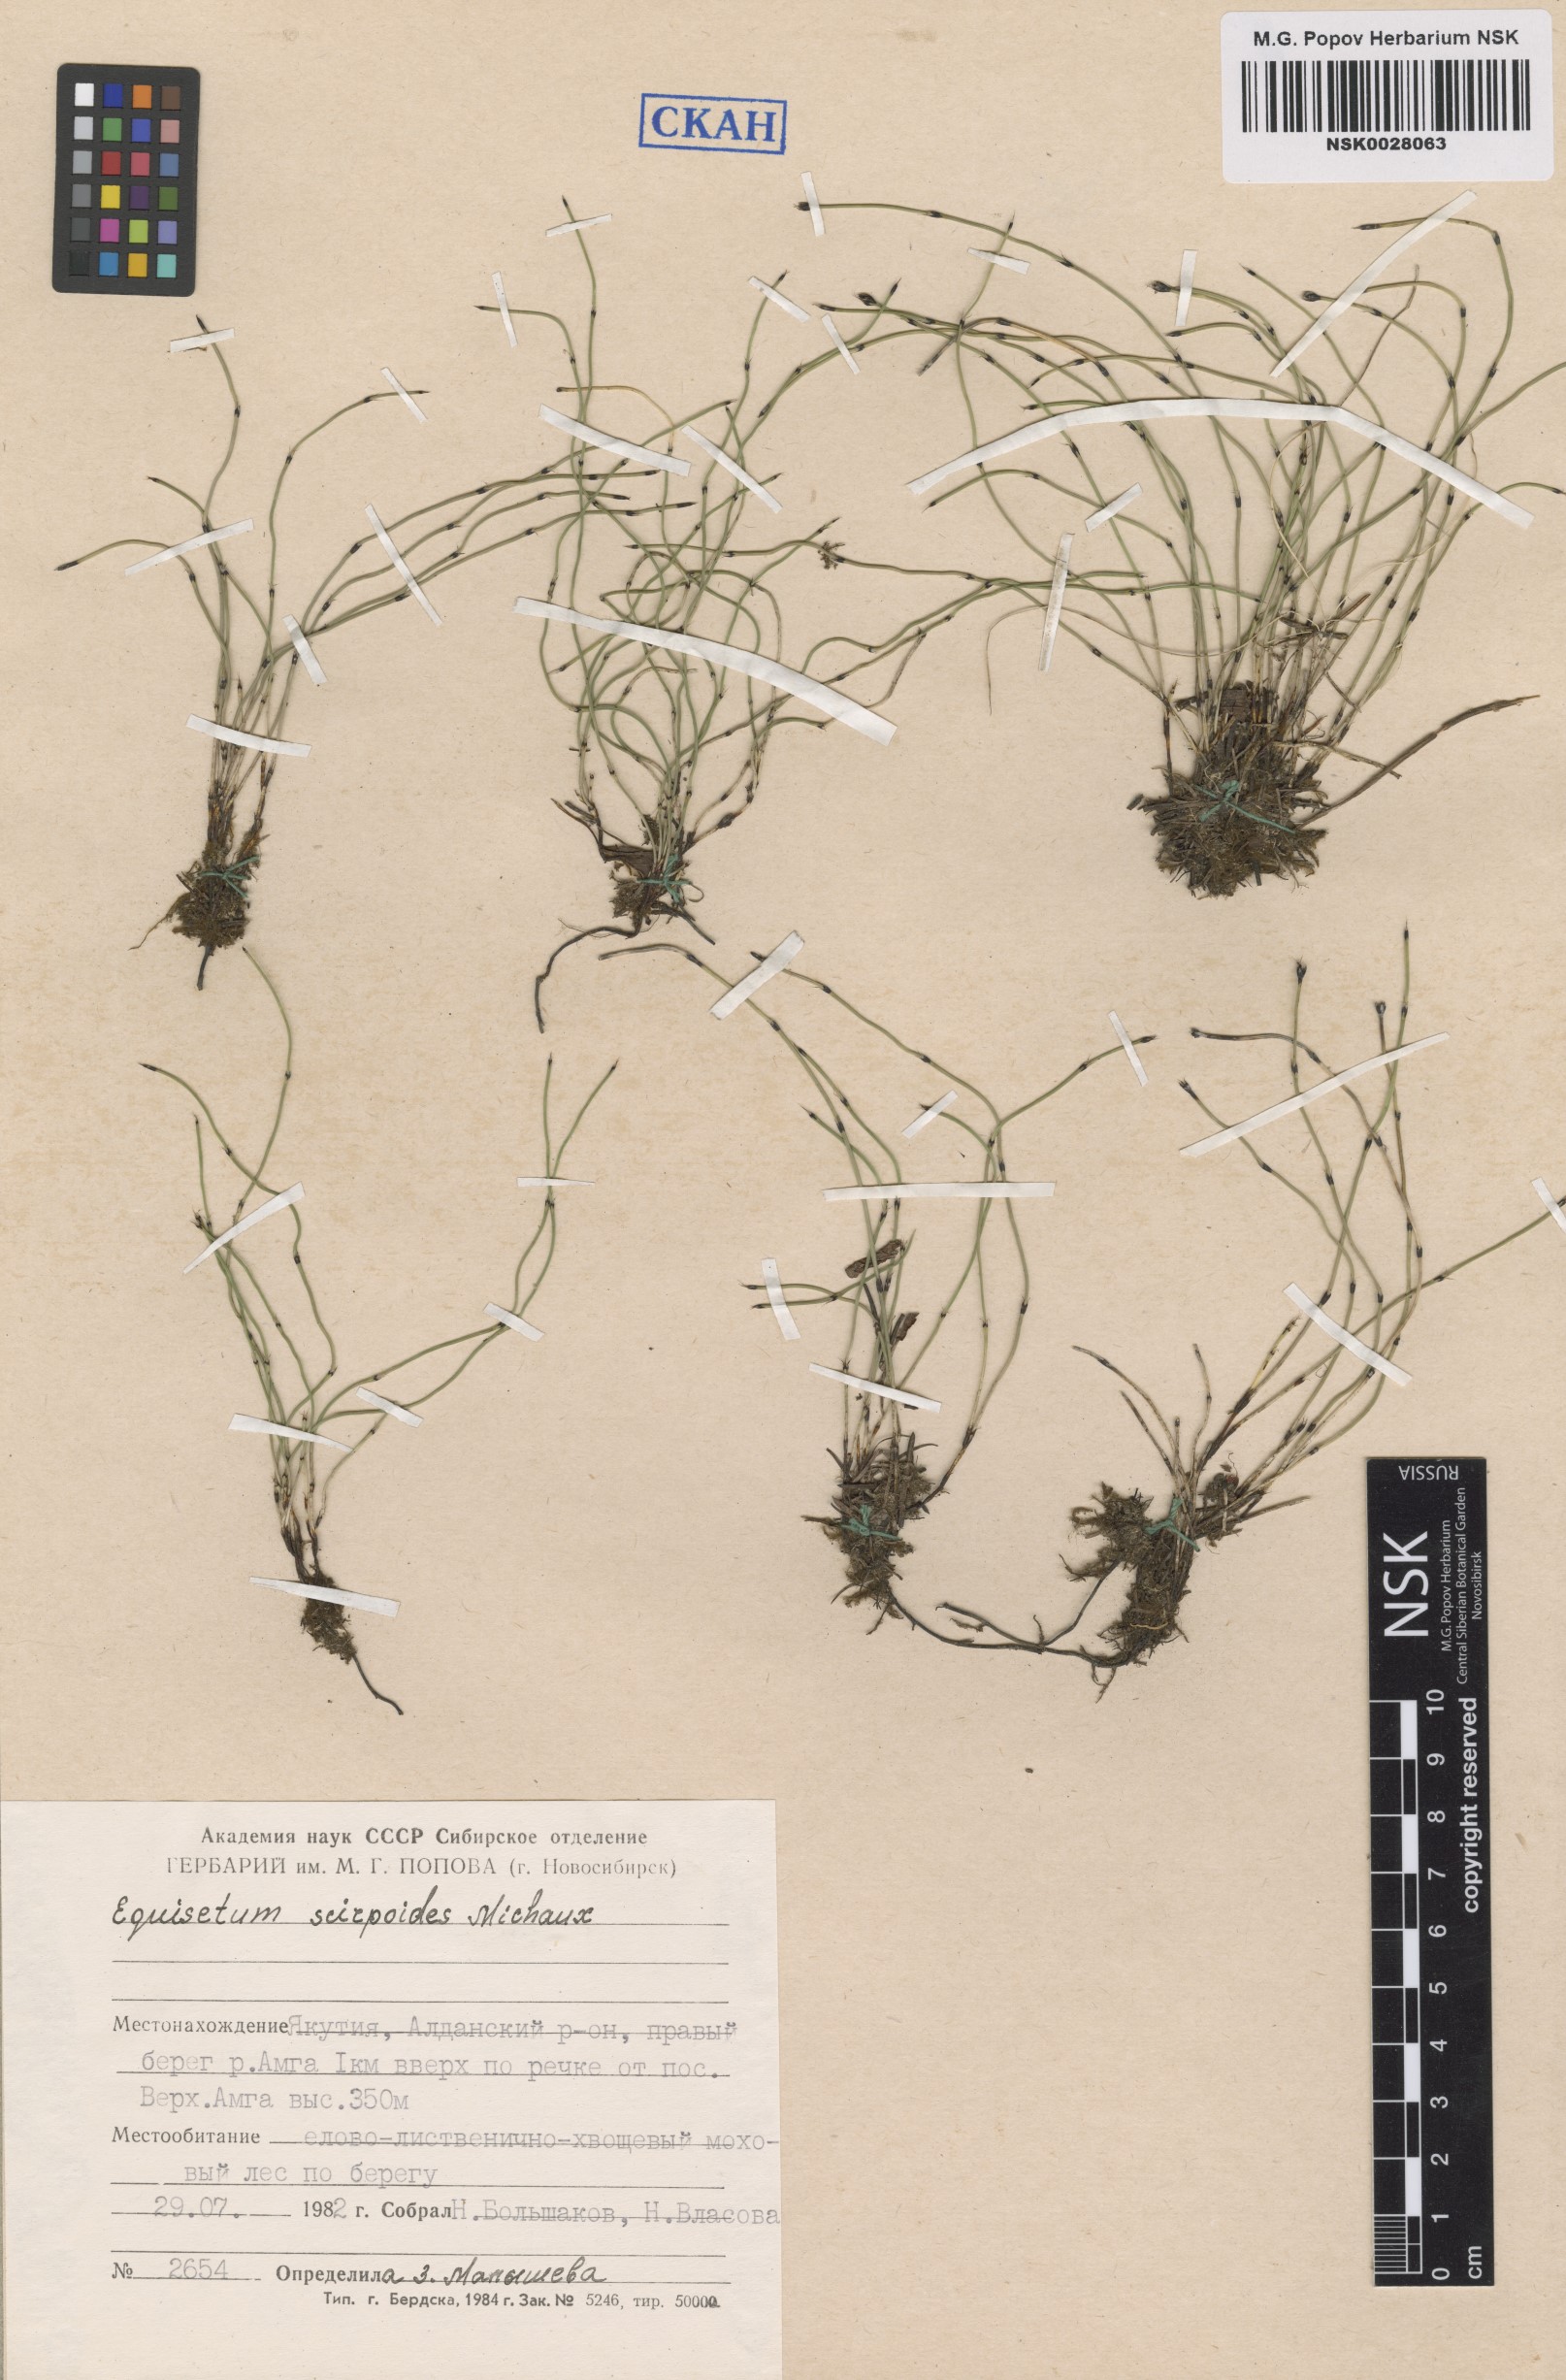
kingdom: Plantae
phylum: Tracheophyta
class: Polypodiopsida
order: Equisetales
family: Equisetaceae
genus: Equisetum
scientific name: Equisetum scirpoides
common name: Delicate horsetail
